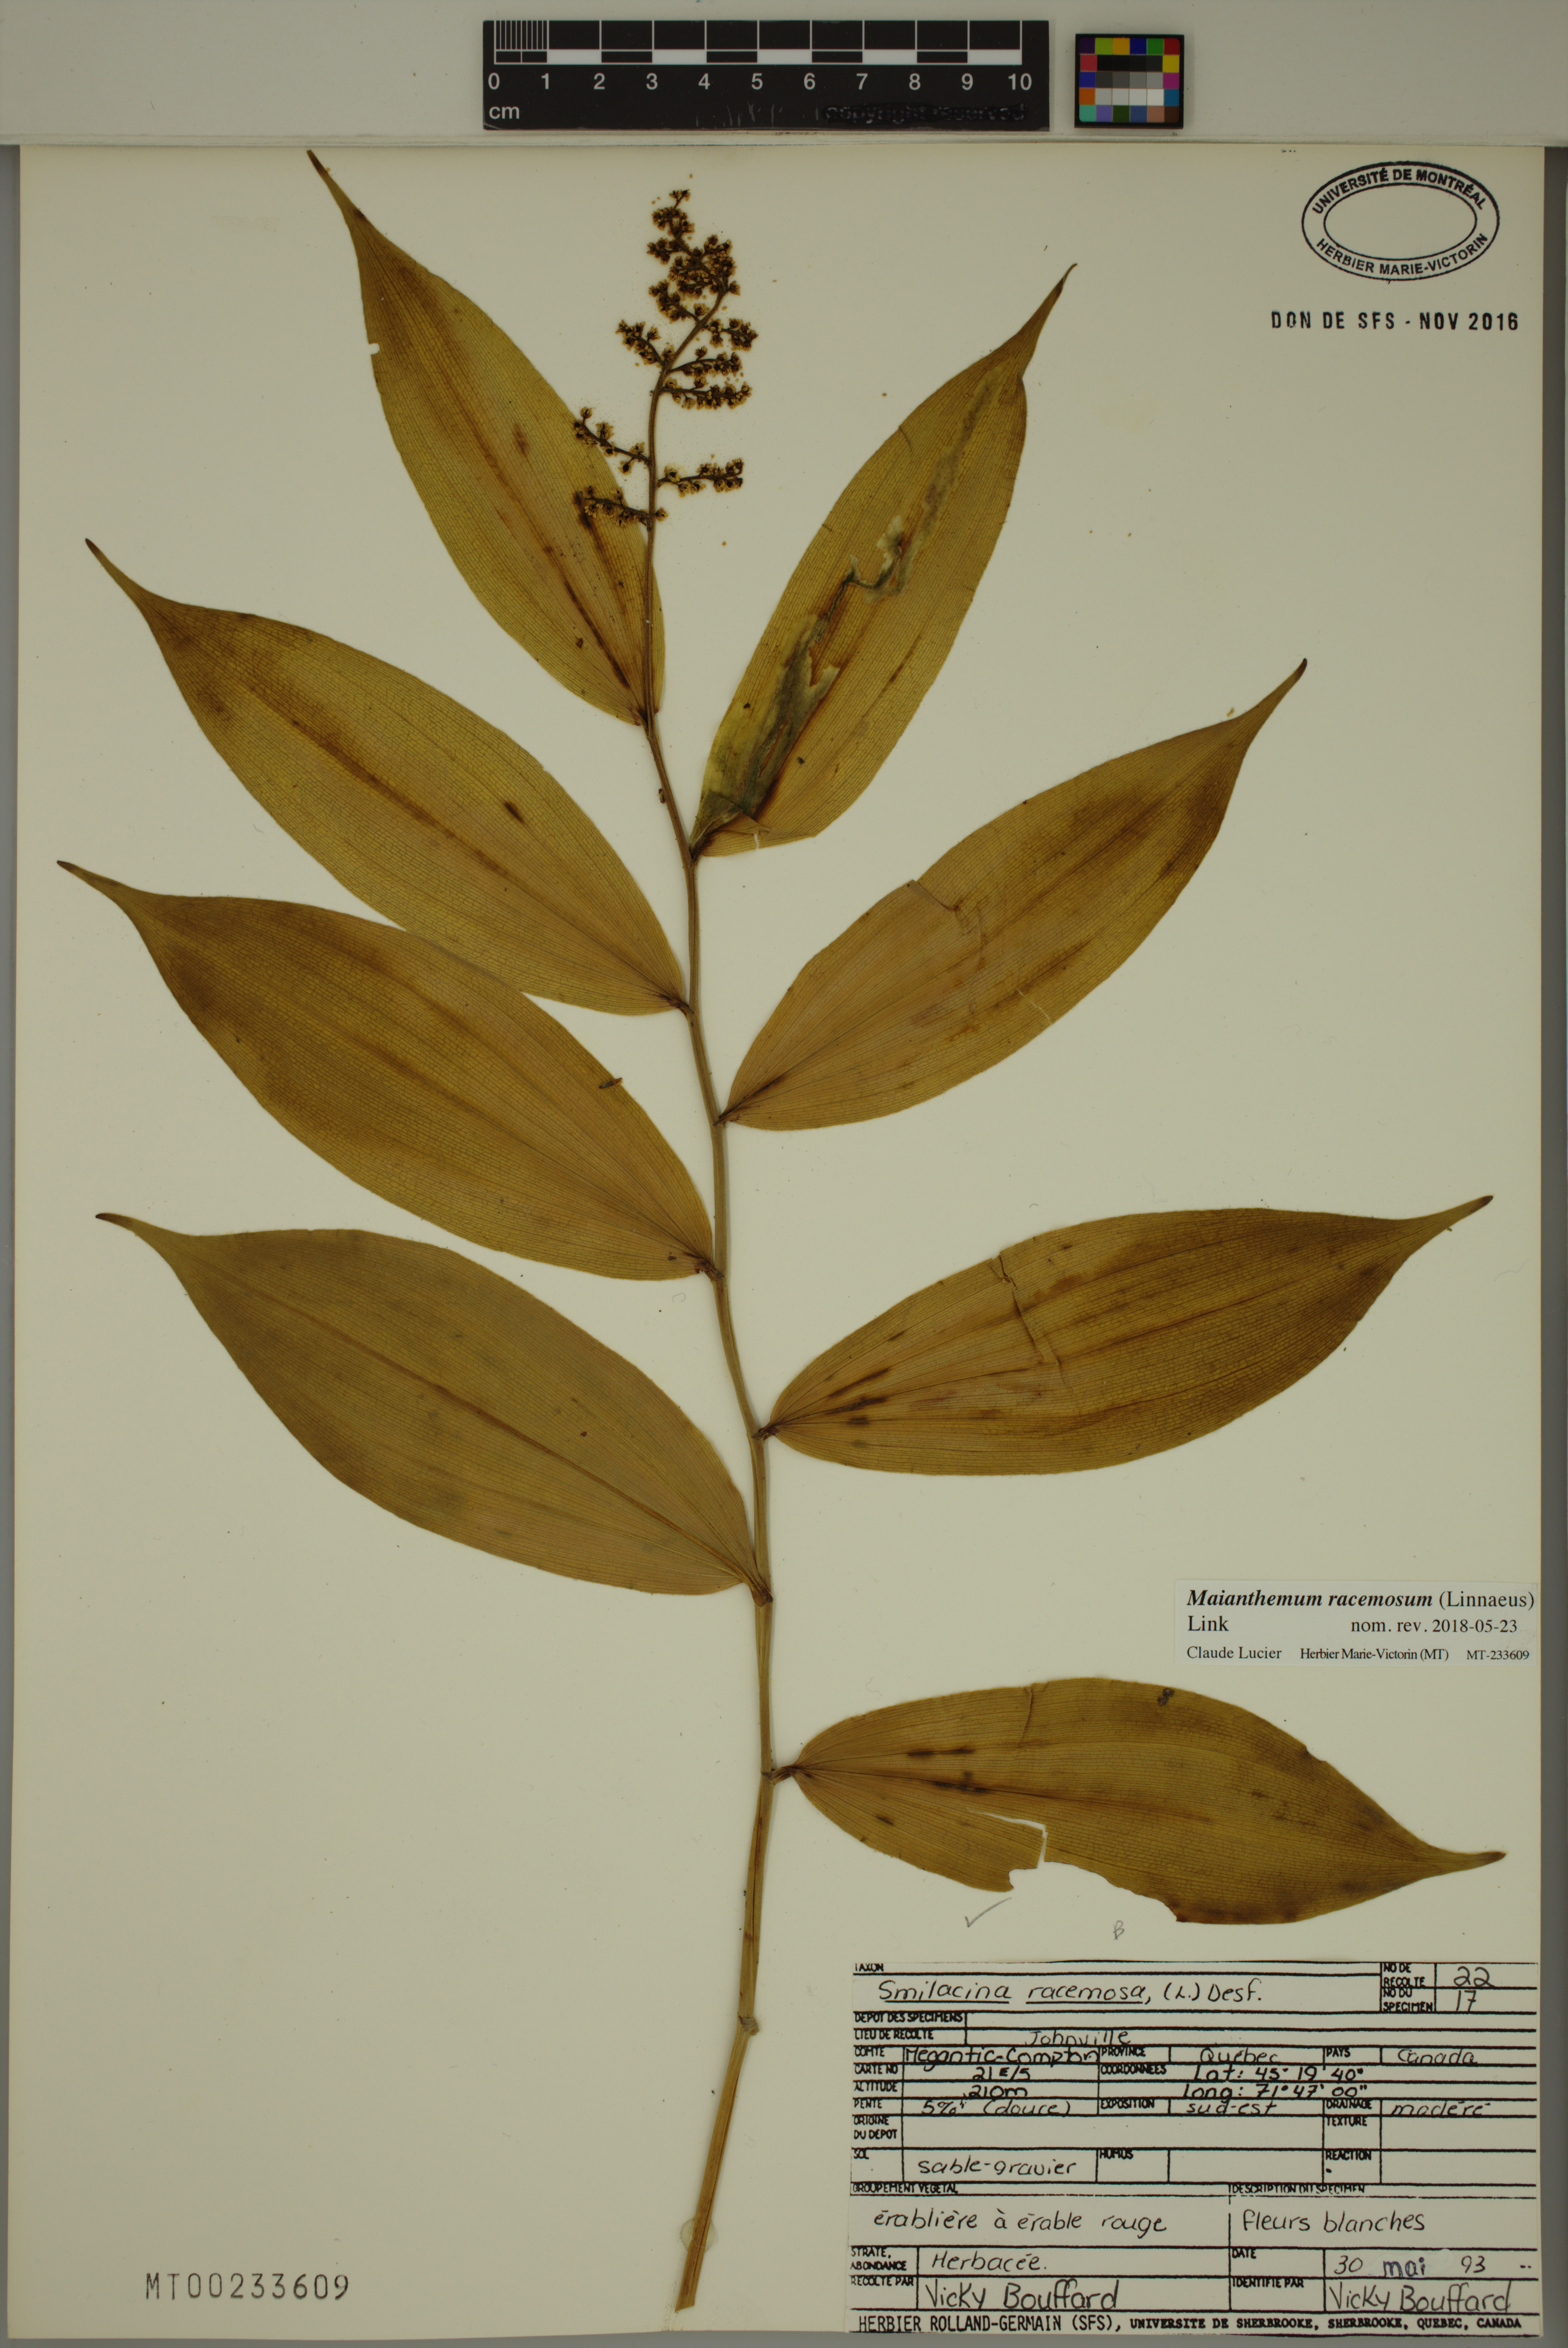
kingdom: Plantae
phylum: Tracheophyta
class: Liliopsida
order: Asparagales
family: Asparagaceae
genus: Maianthemum
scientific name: Maianthemum racemosum
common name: False spikenard
